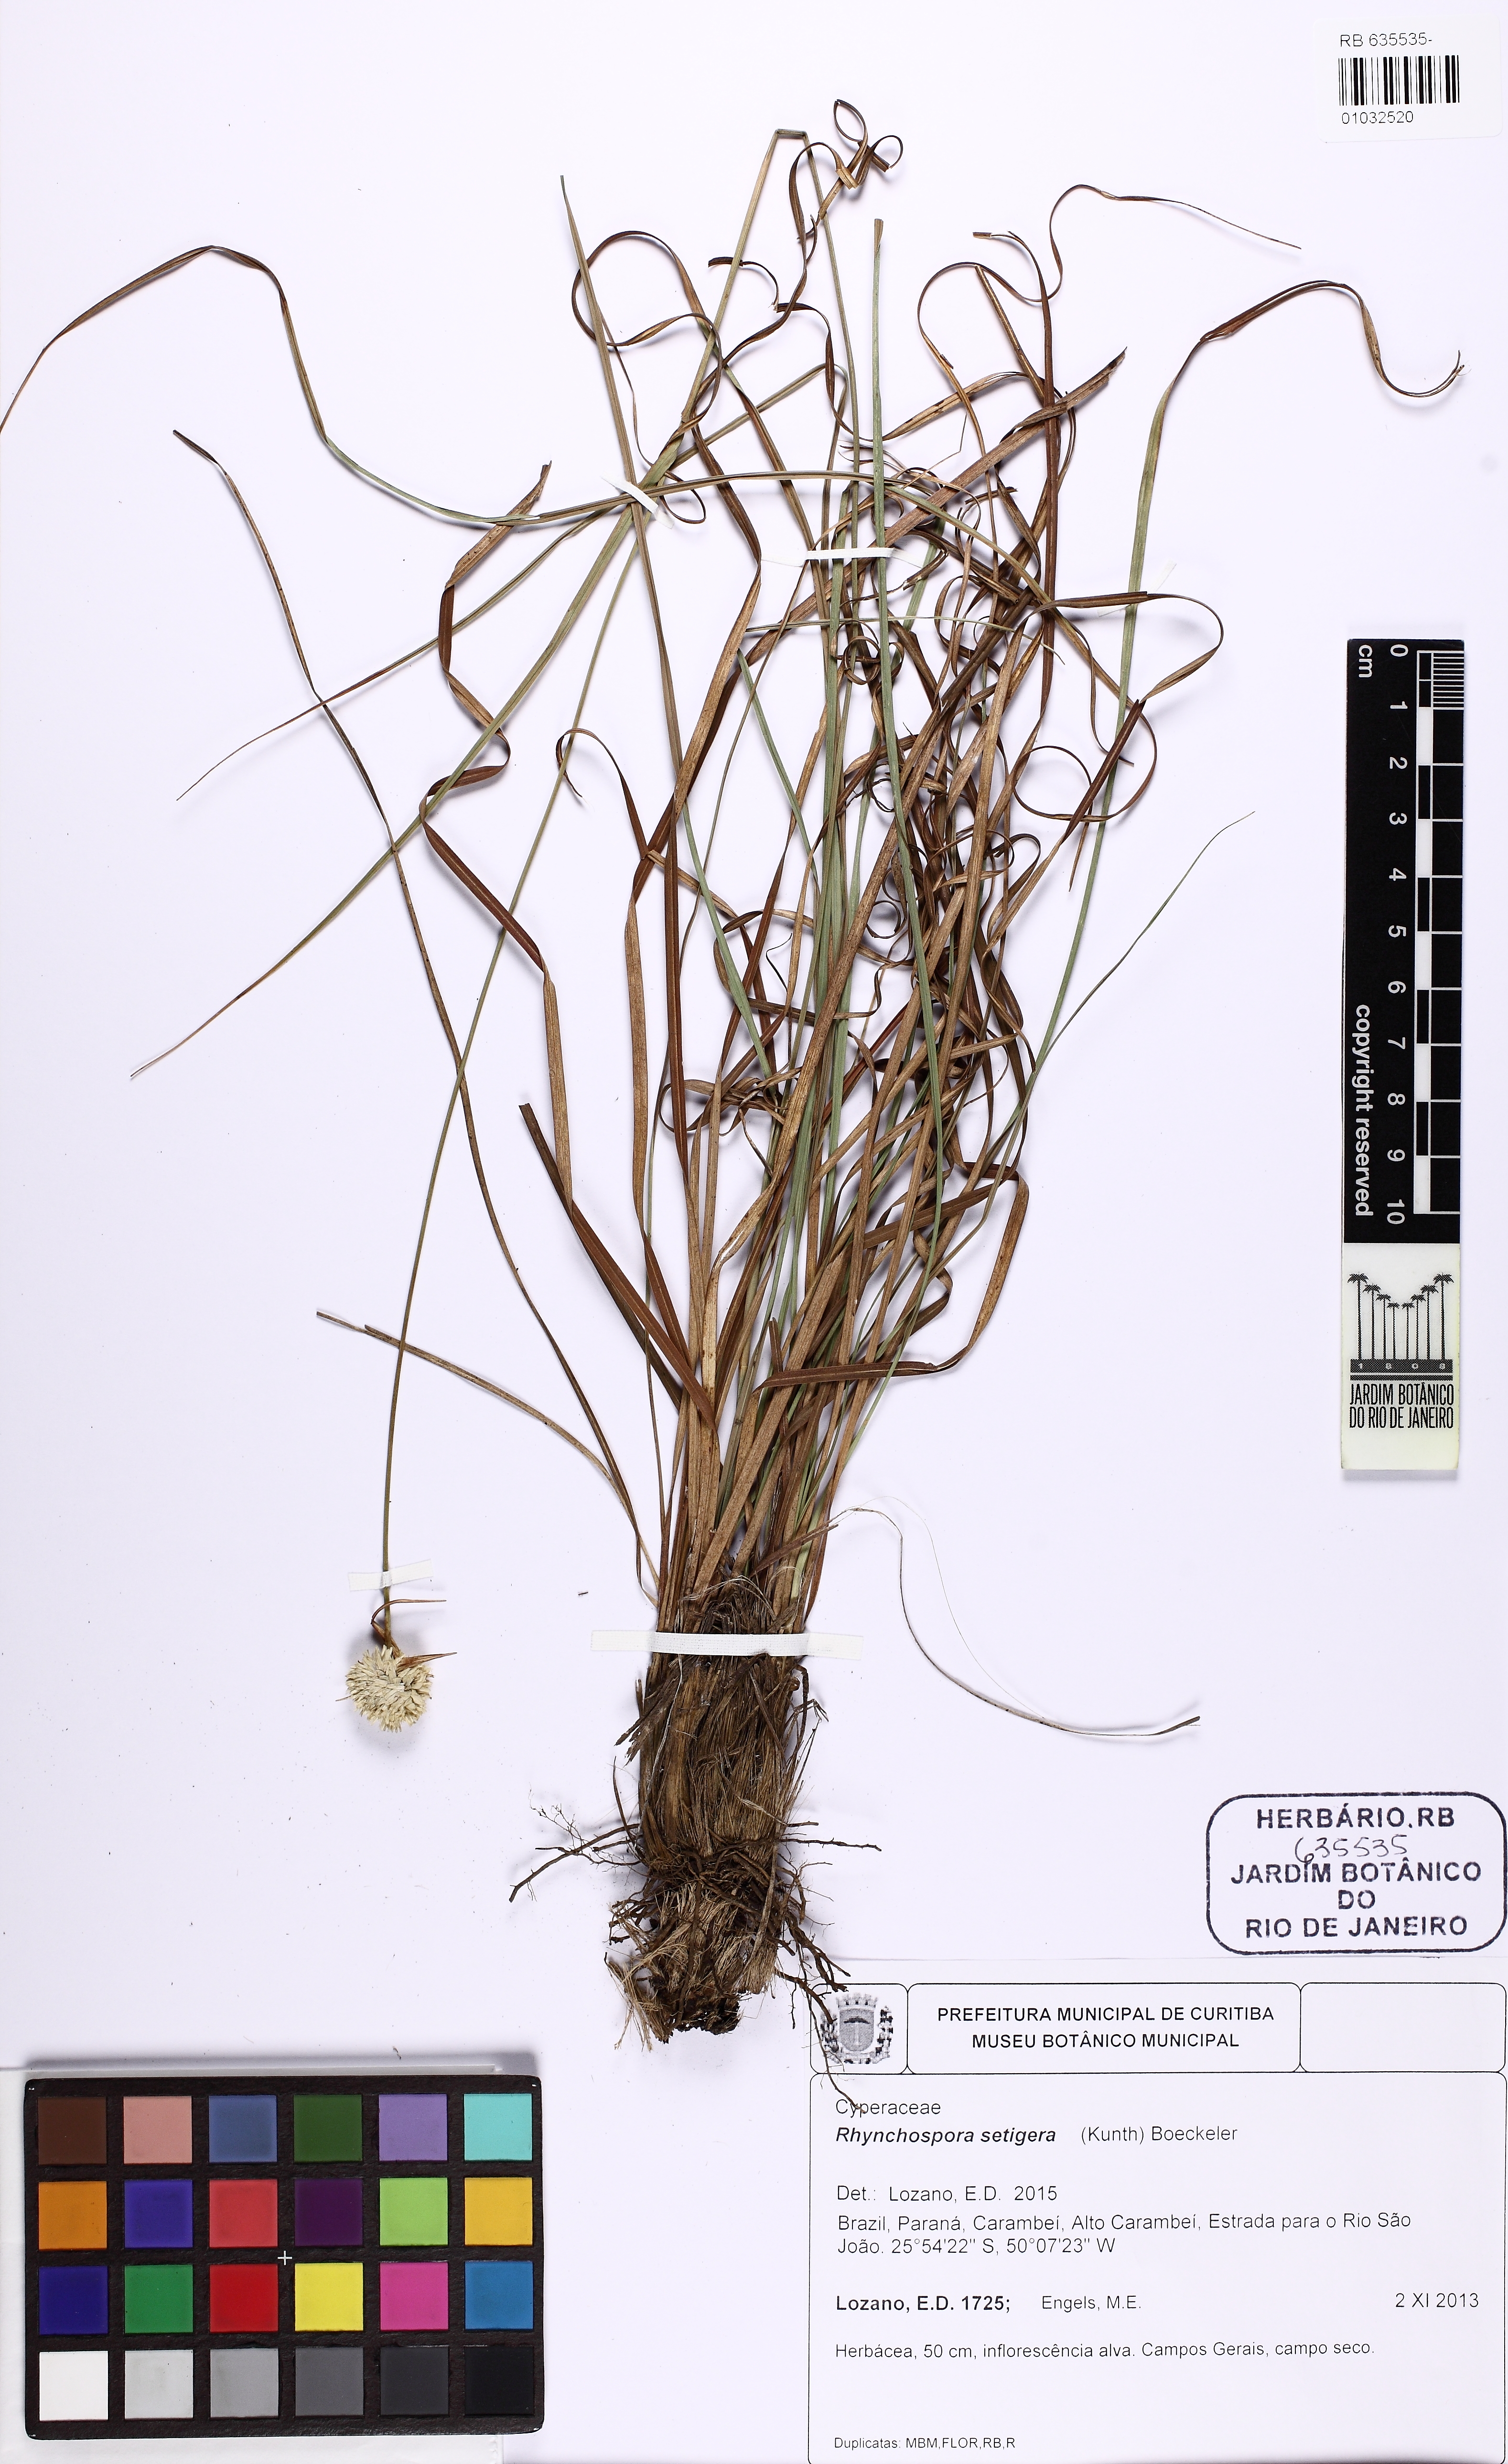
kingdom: Plantae
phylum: Tracheophyta
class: Liliopsida
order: Poales
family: Cyperaceae
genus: Rhynchospora
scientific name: Rhynchospora setigera
